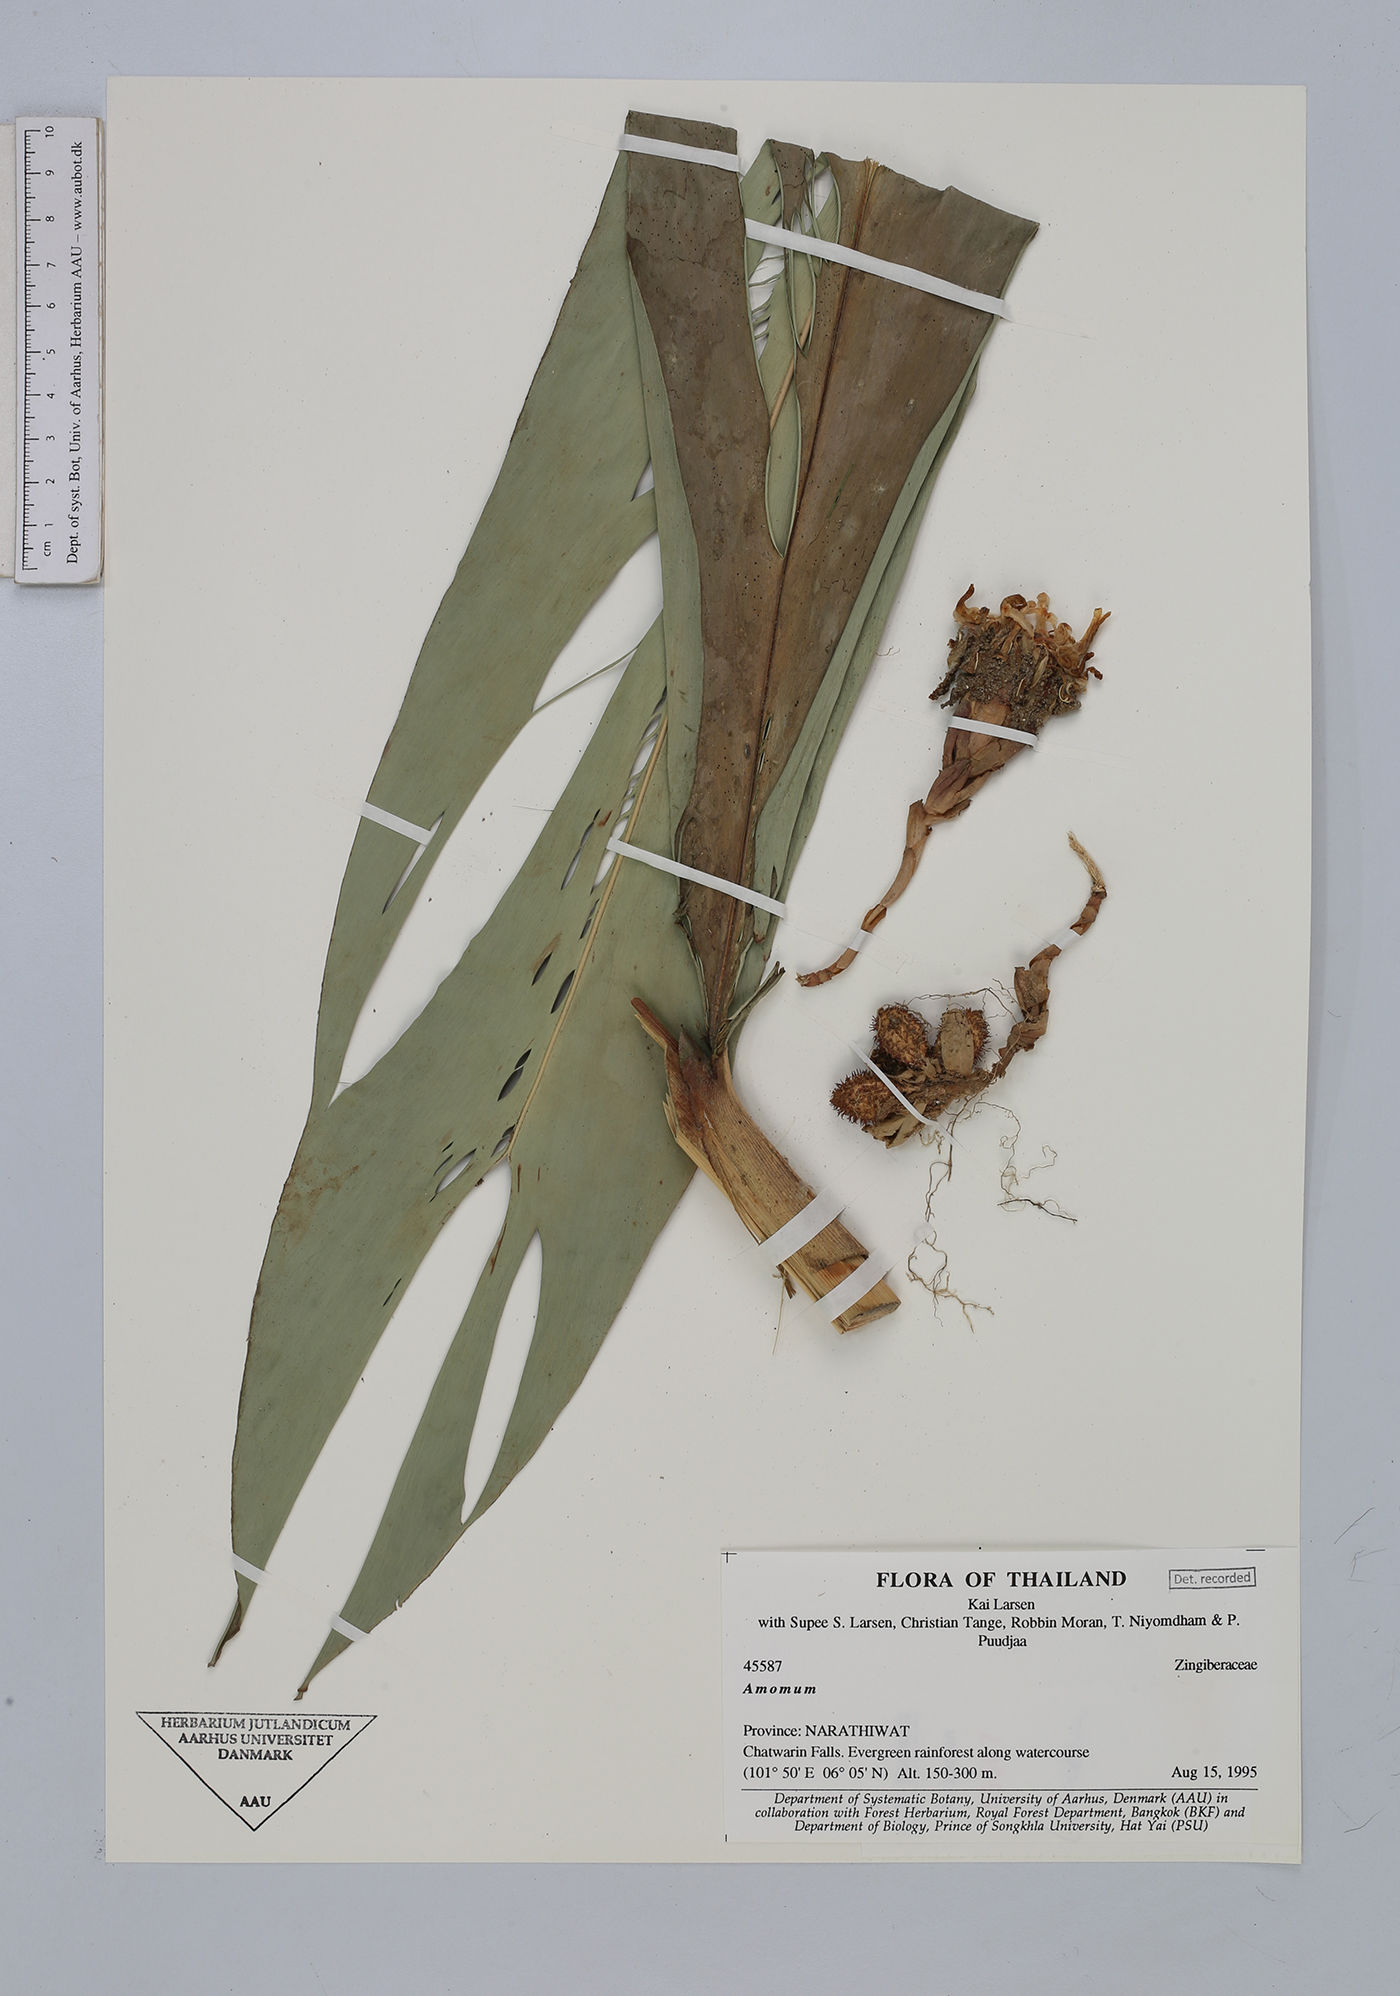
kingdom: Plantae
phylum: Tracheophyta
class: Liliopsida
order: Zingiberales
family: Zingiberaceae
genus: Amomum
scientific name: Amomum
